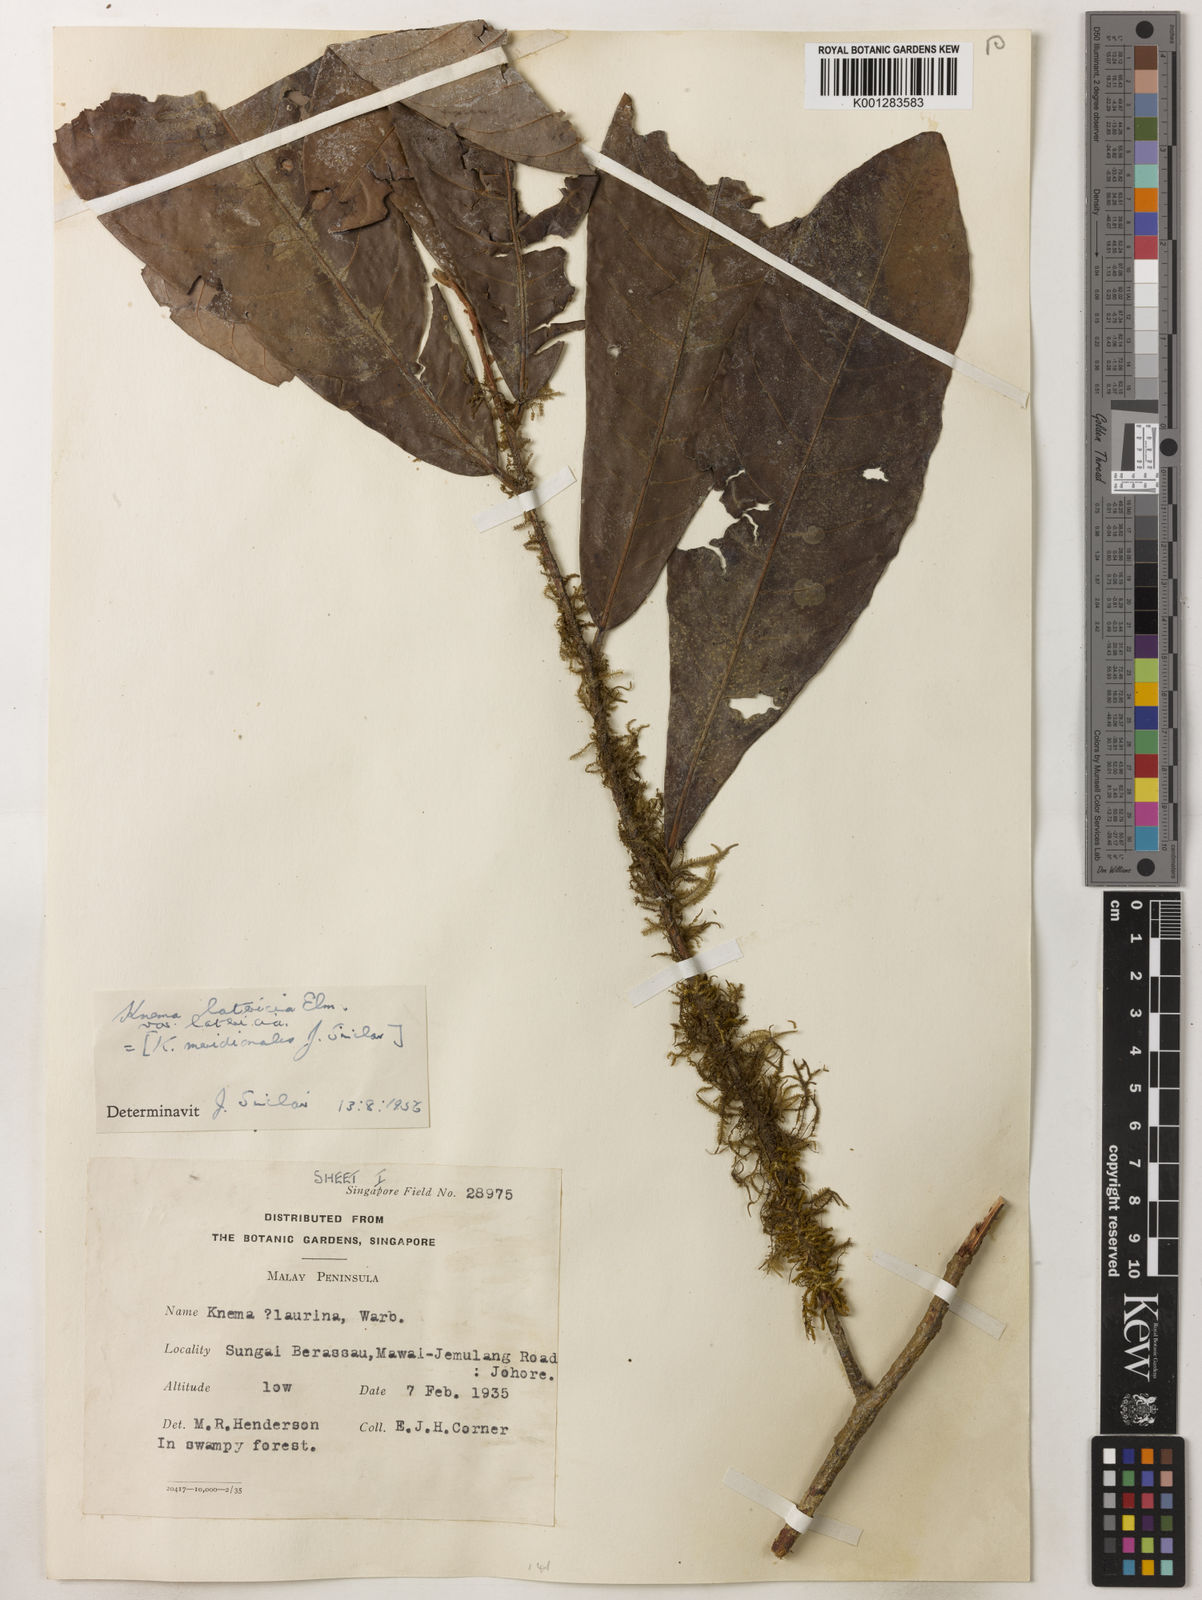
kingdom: Plantae
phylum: Tracheophyta
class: Magnoliopsida
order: Magnoliales
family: Myristicaceae
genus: Knema
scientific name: Knema latericia
